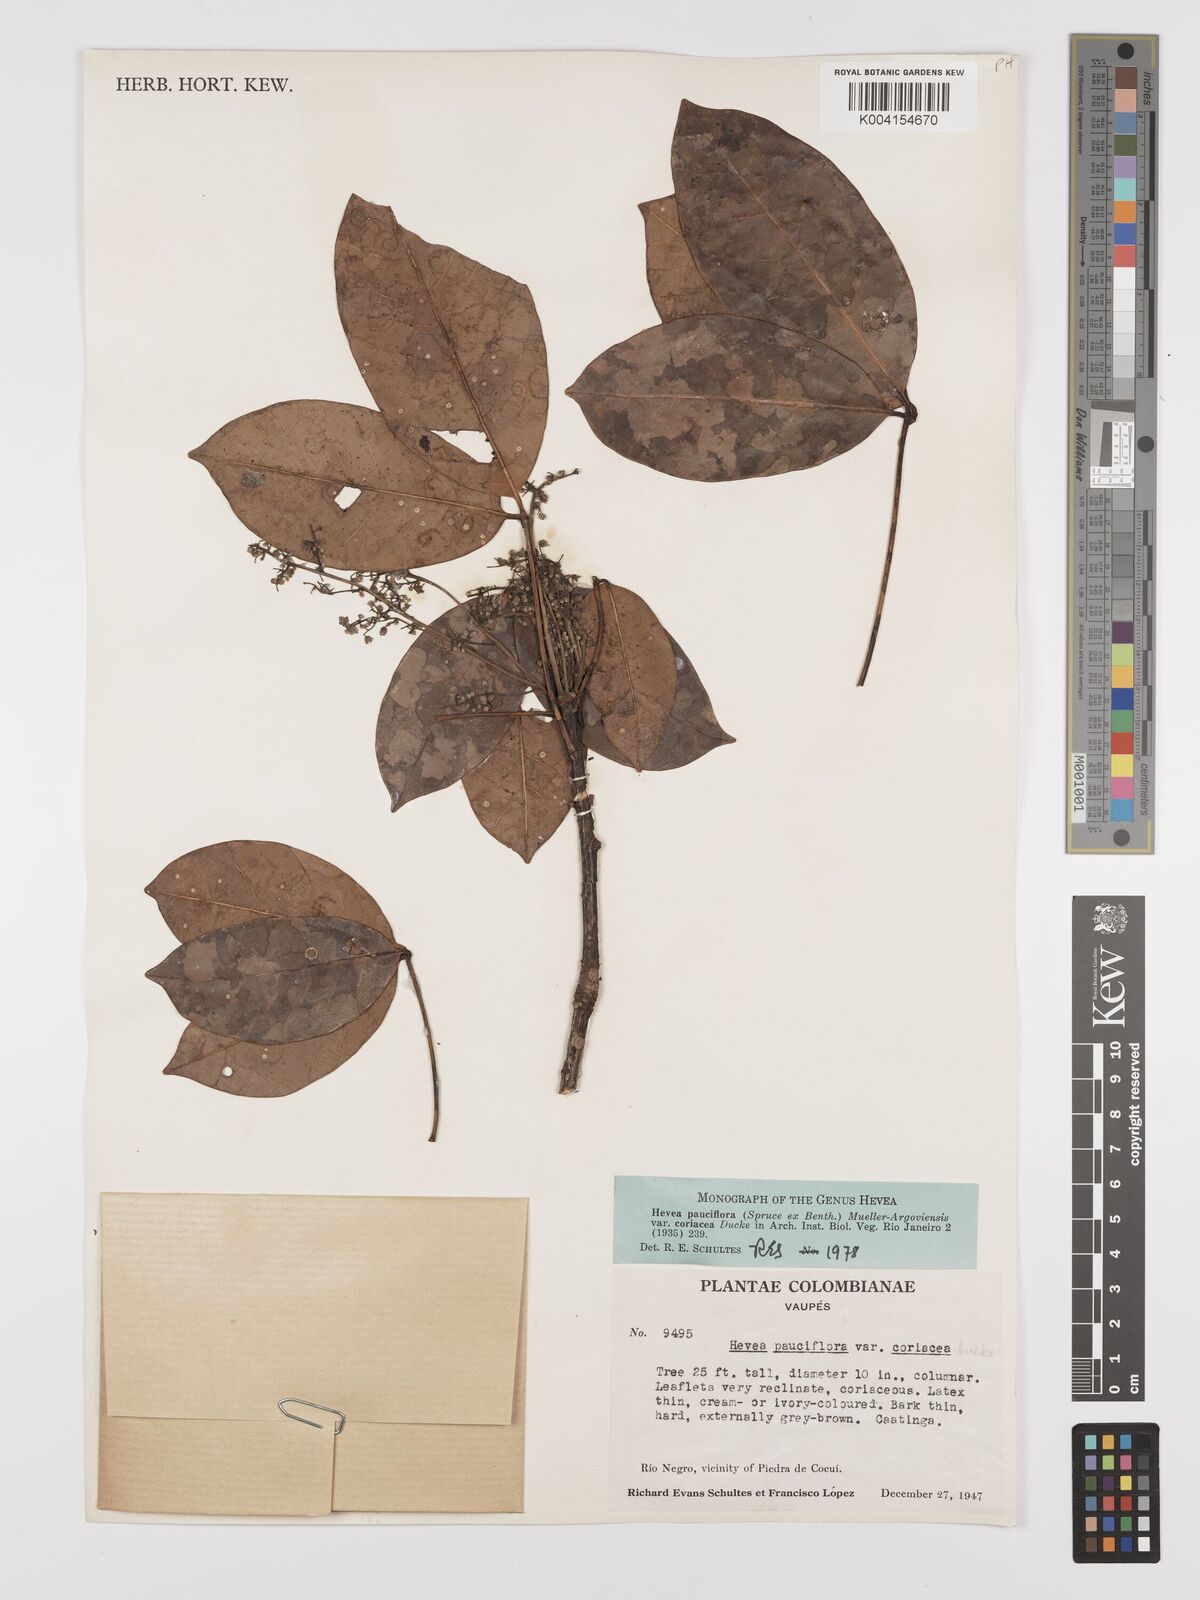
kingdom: Plantae
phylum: Tracheophyta
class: Magnoliopsida
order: Malpighiales
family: Euphorbiaceae
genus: Hevea
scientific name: Hevea pauciflora
